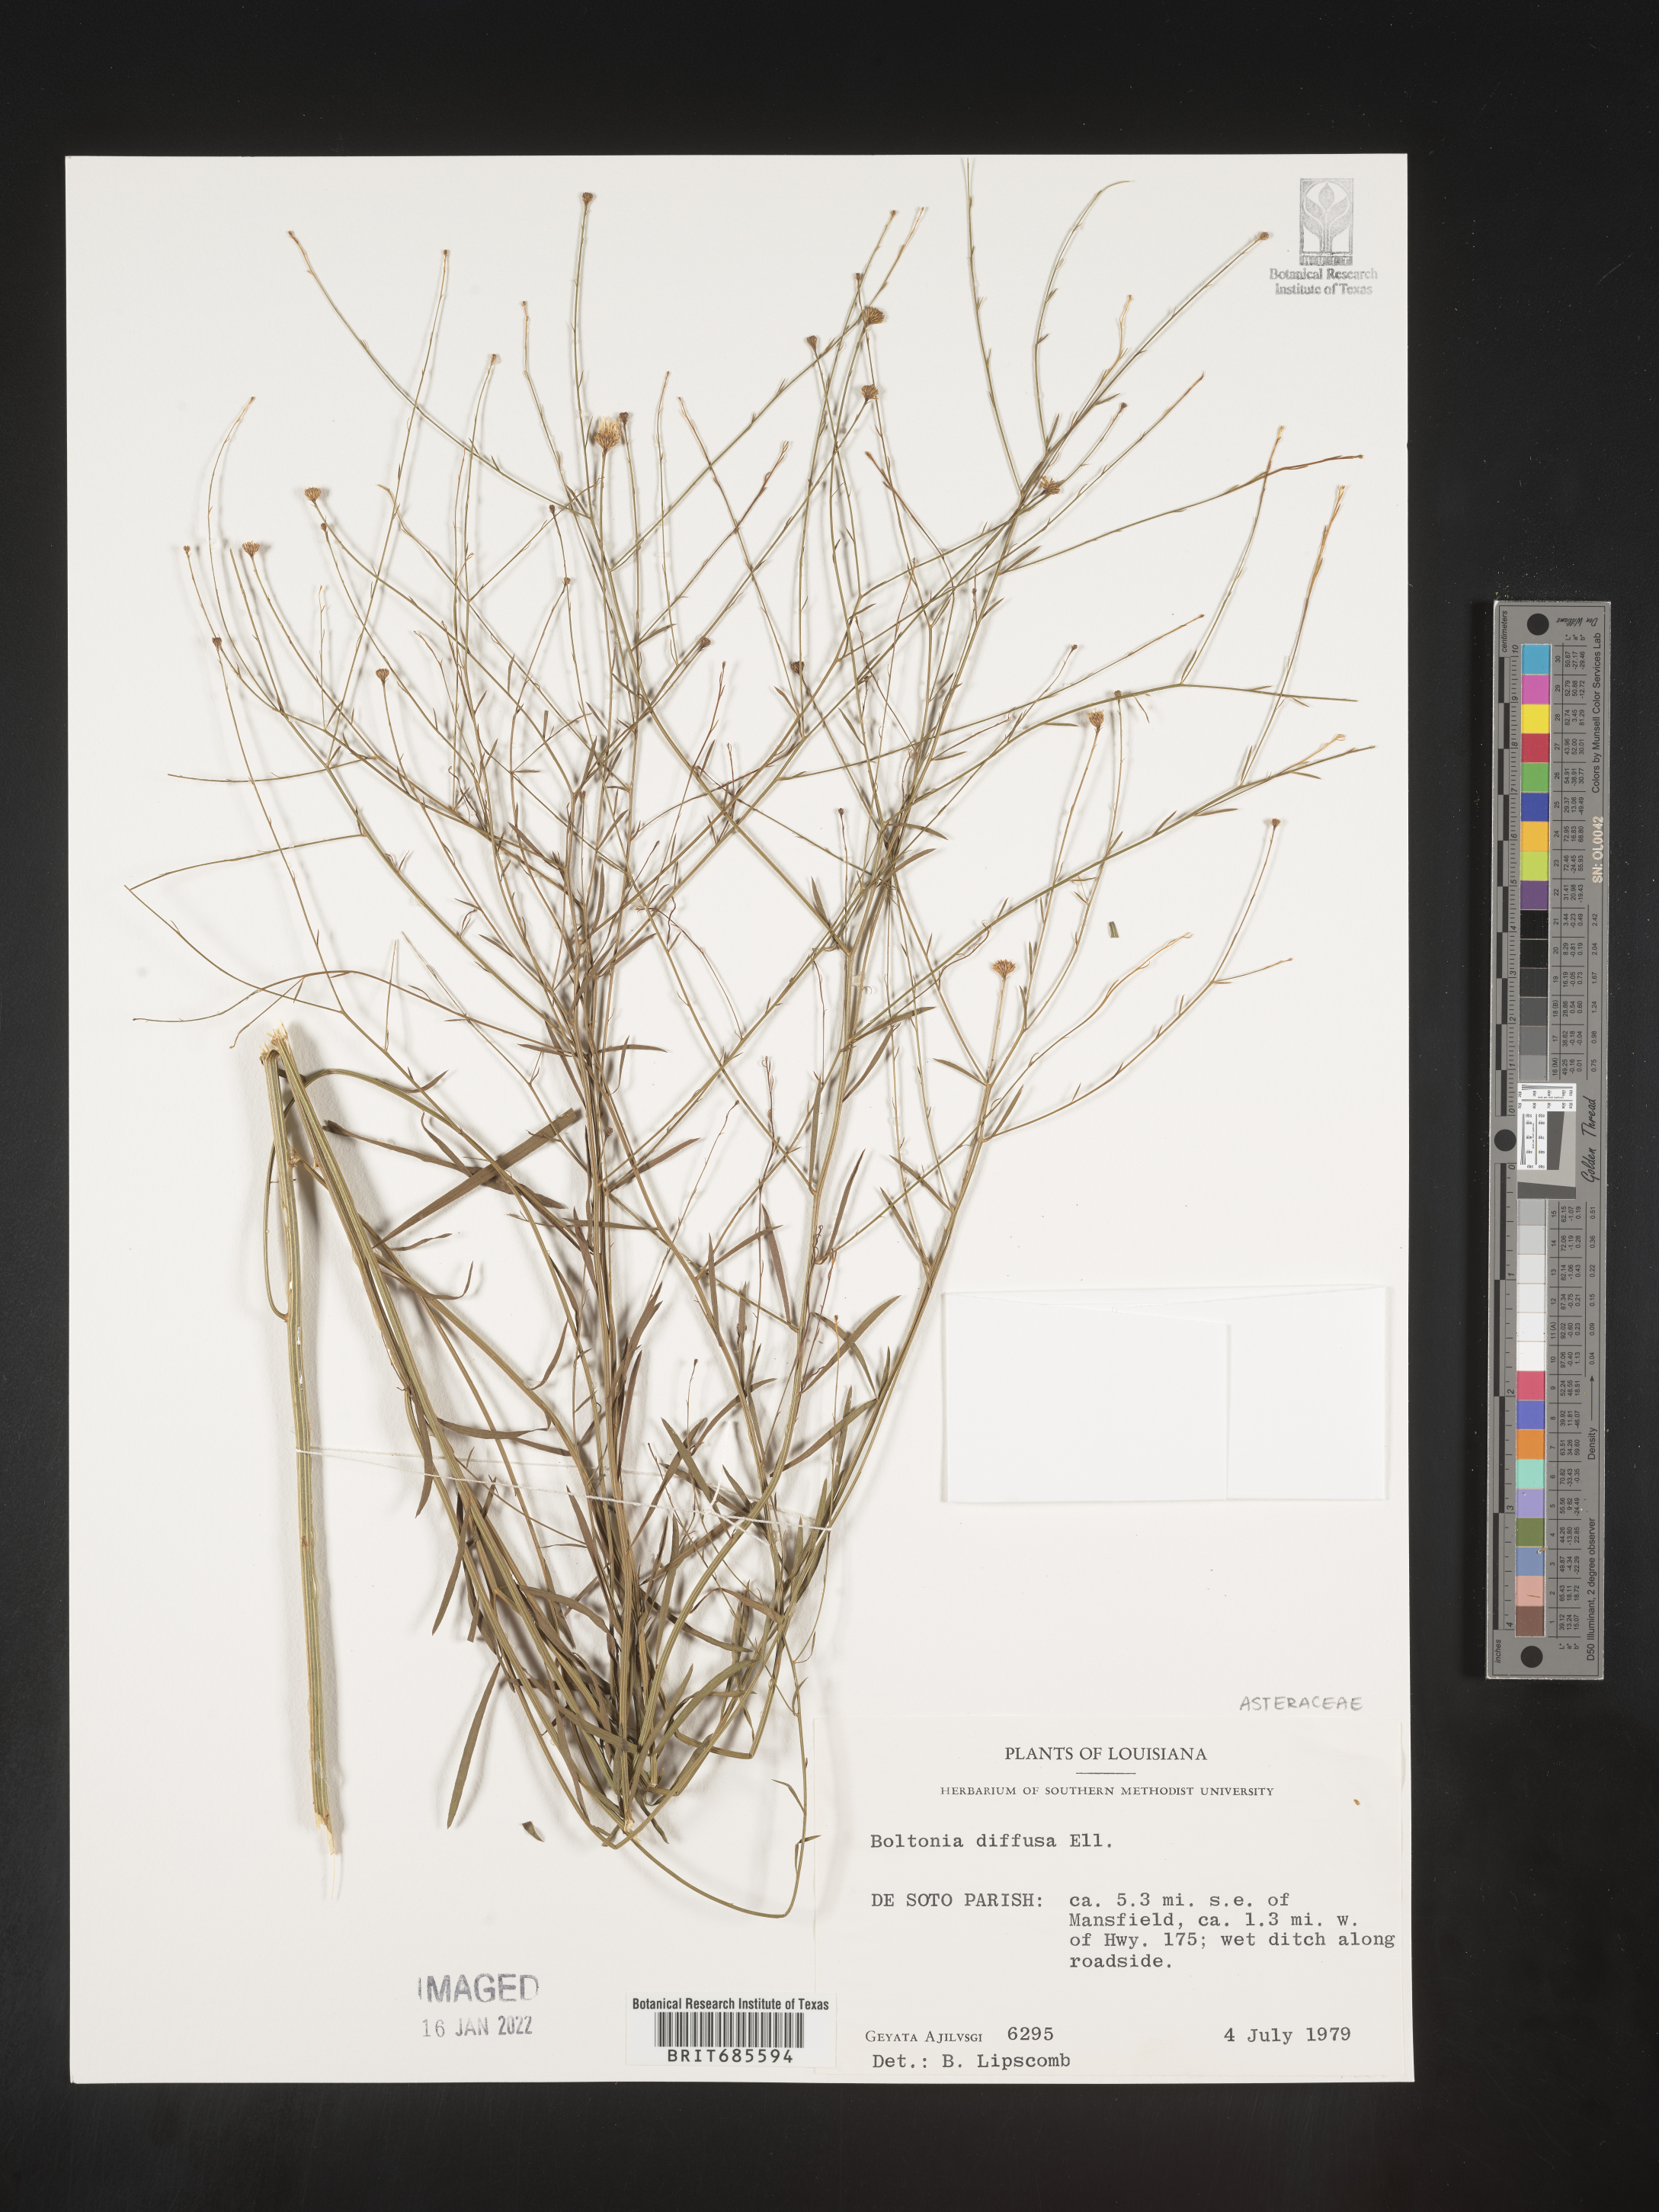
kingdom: Plantae
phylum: Tracheophyta
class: Magnoliopsida
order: Asterales
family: Asteraceae
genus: Boltonia
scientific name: Boltonia diffusa
